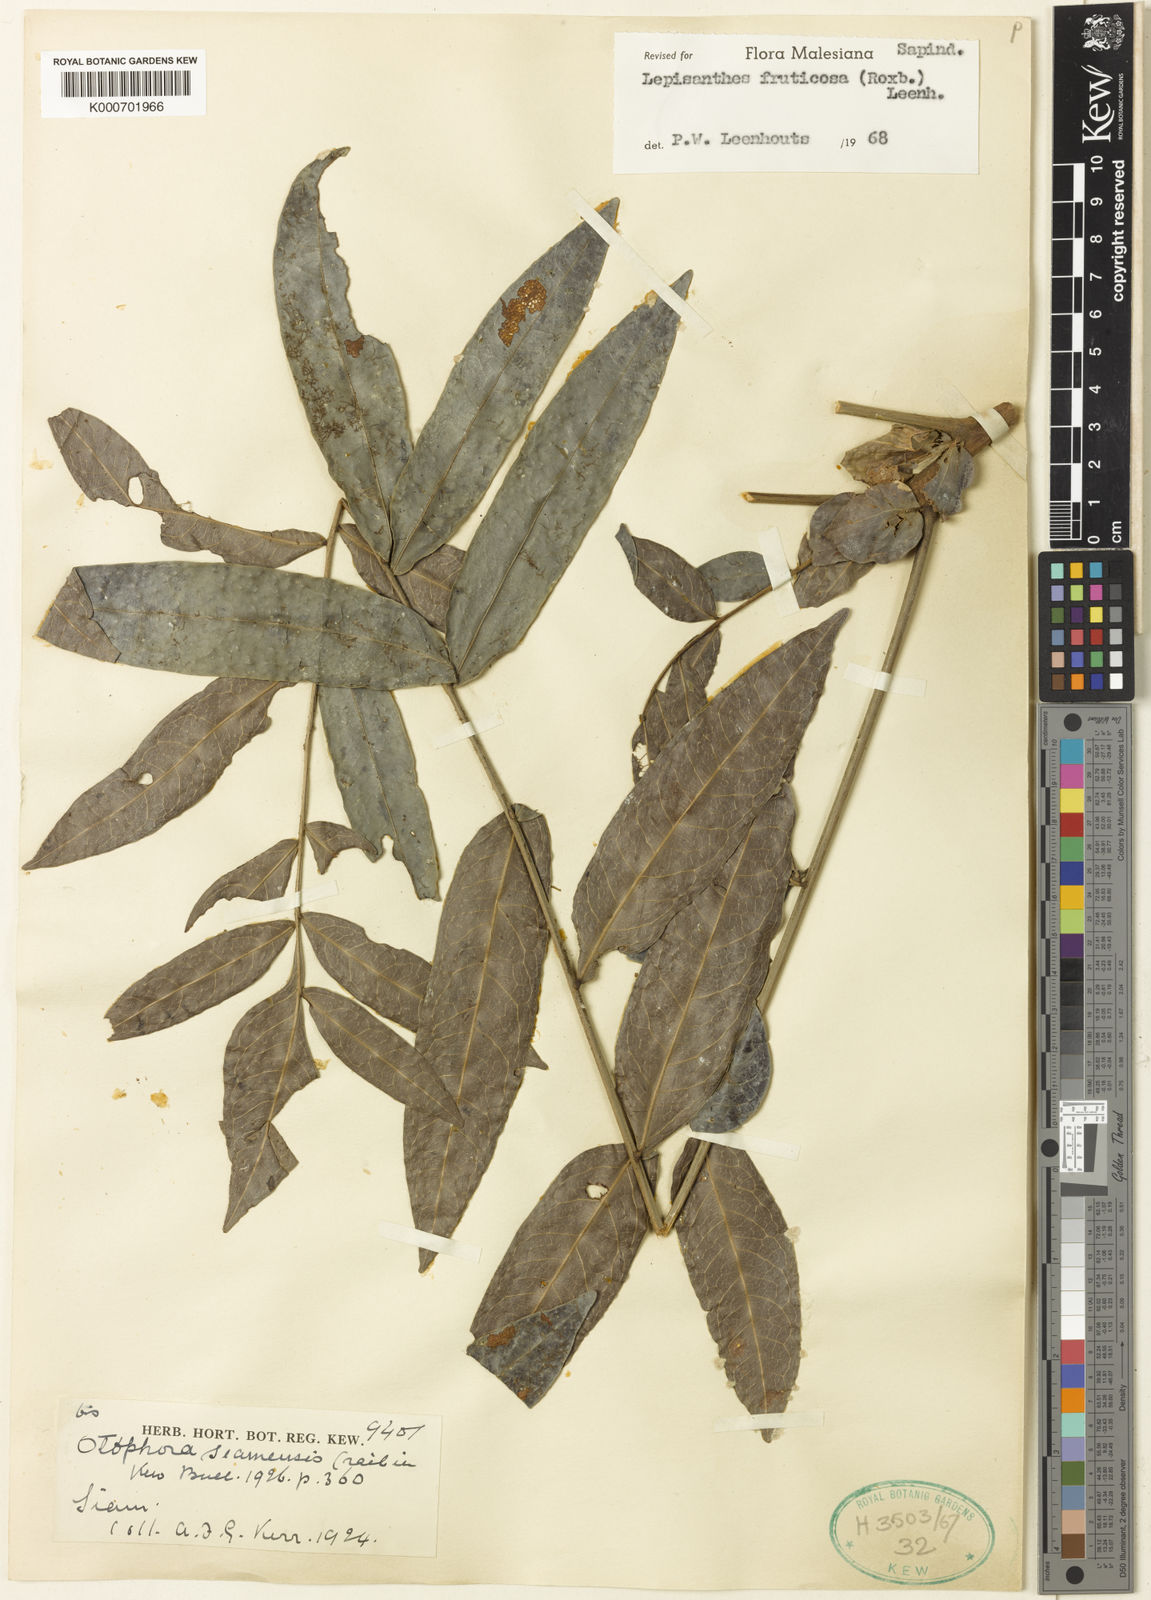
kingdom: Plantae
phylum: Tracheophyta
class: Magnoliopsida
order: Sapindales
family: Sapindaceae
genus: Lepisanthes
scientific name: Lepisanthes fruticosa
